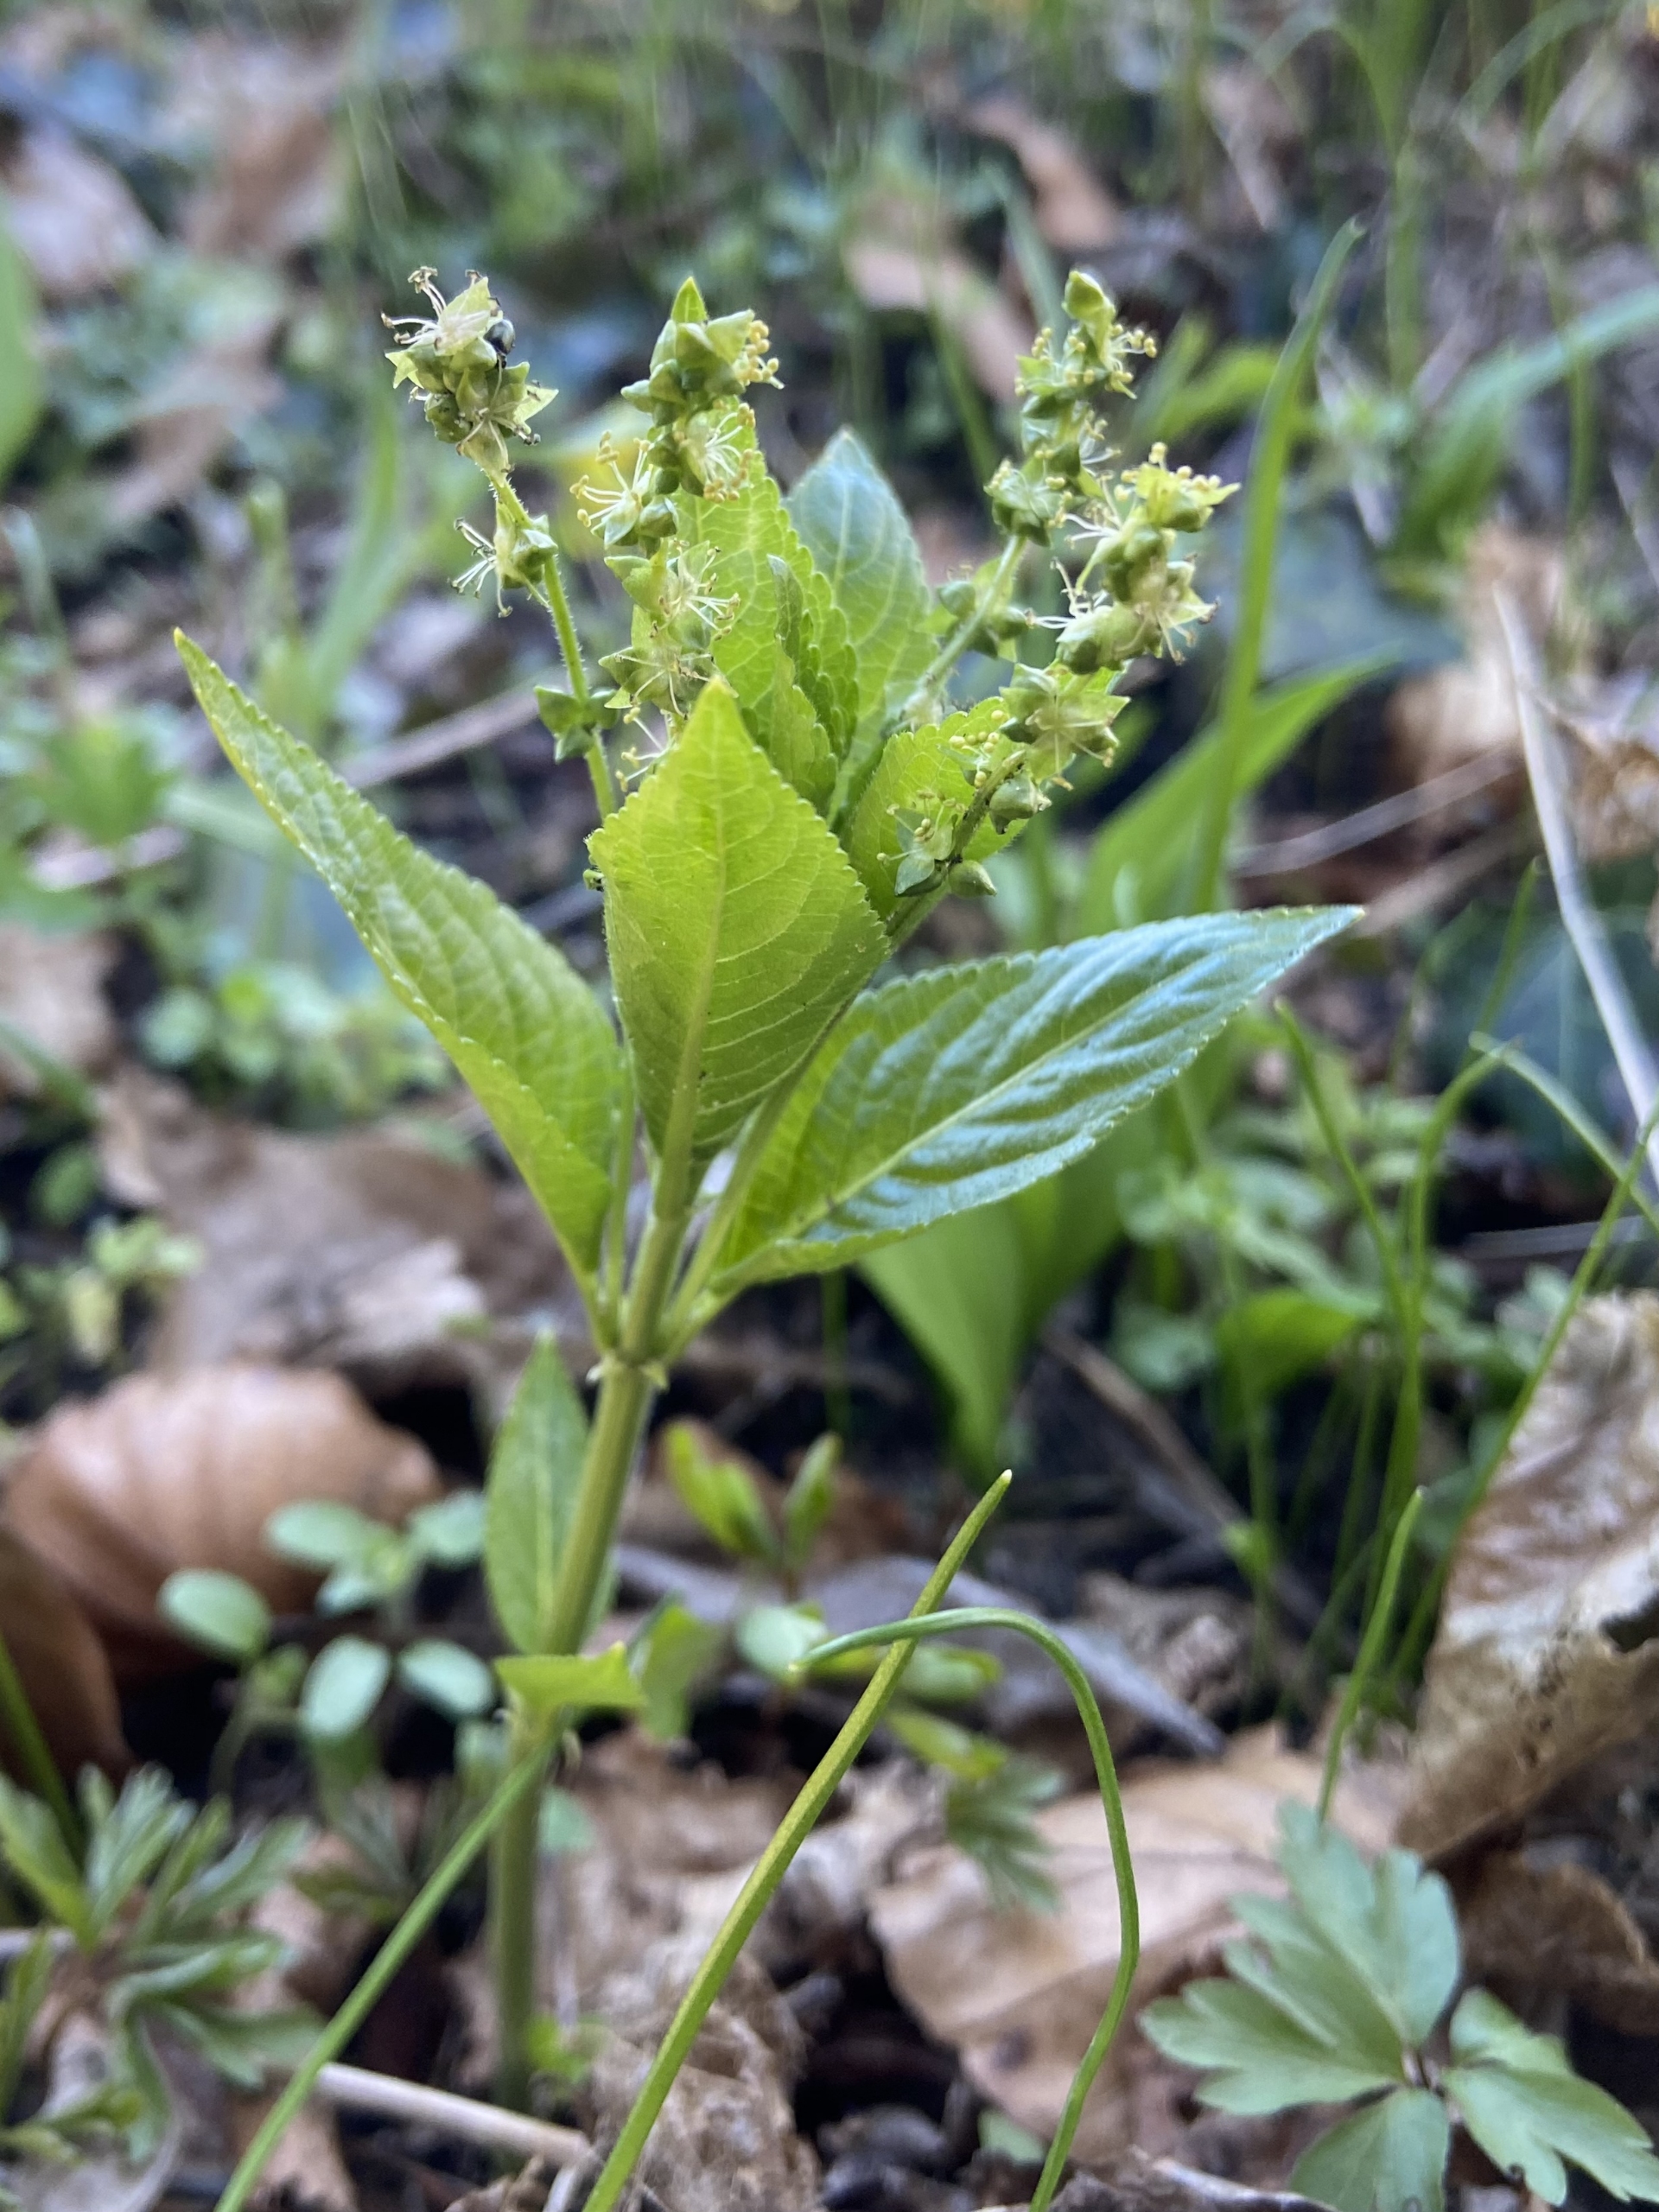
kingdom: Plantae
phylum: Tracheophyta
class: Magnoliopsida
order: Malpighiales
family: Euphorbiaceae
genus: Mercurialis
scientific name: Mercurialis perennis
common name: Almindelig bingelurt
